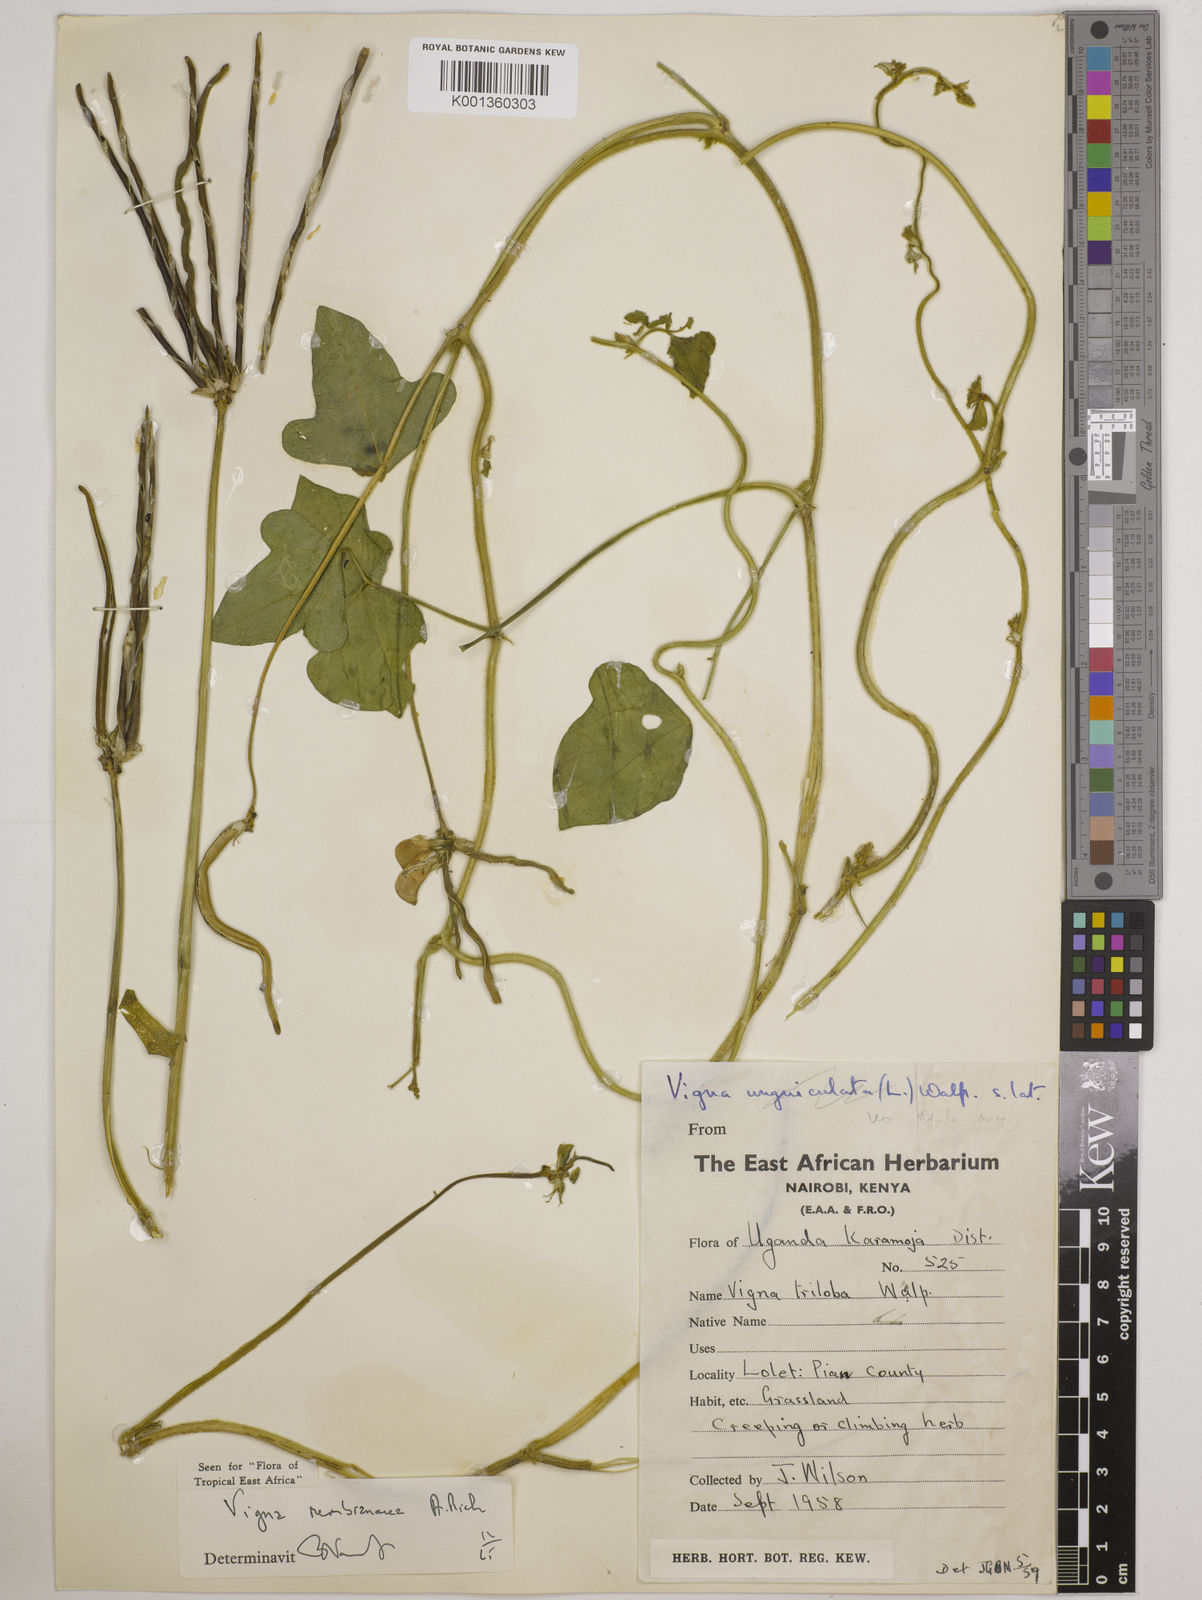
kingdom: Plantae
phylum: Tracheophyta
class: Magnoliopsida
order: Fabales
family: Fabaceae
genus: Vigna
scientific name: Vigna membranacea
